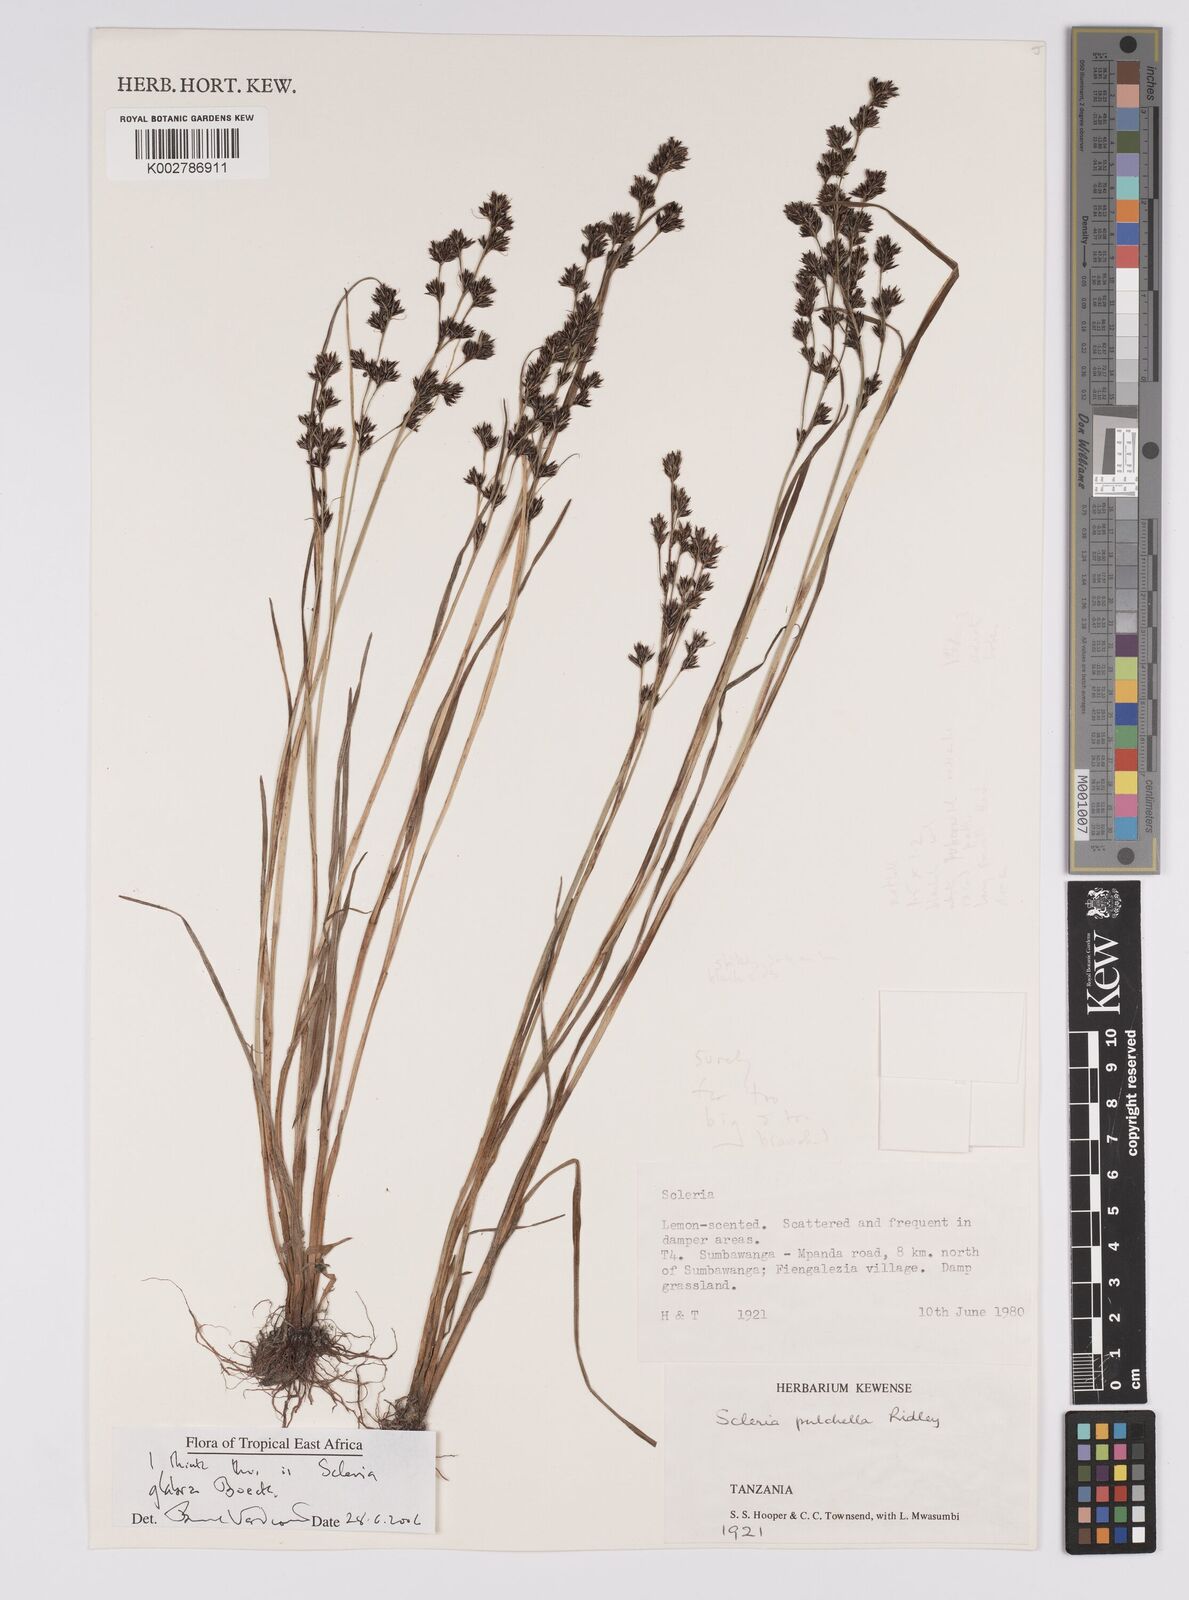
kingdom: Plantae
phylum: Tracheophyta
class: Liliopsida
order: Poales
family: Cyperaceae
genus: Scleria
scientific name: Scleria glabra
